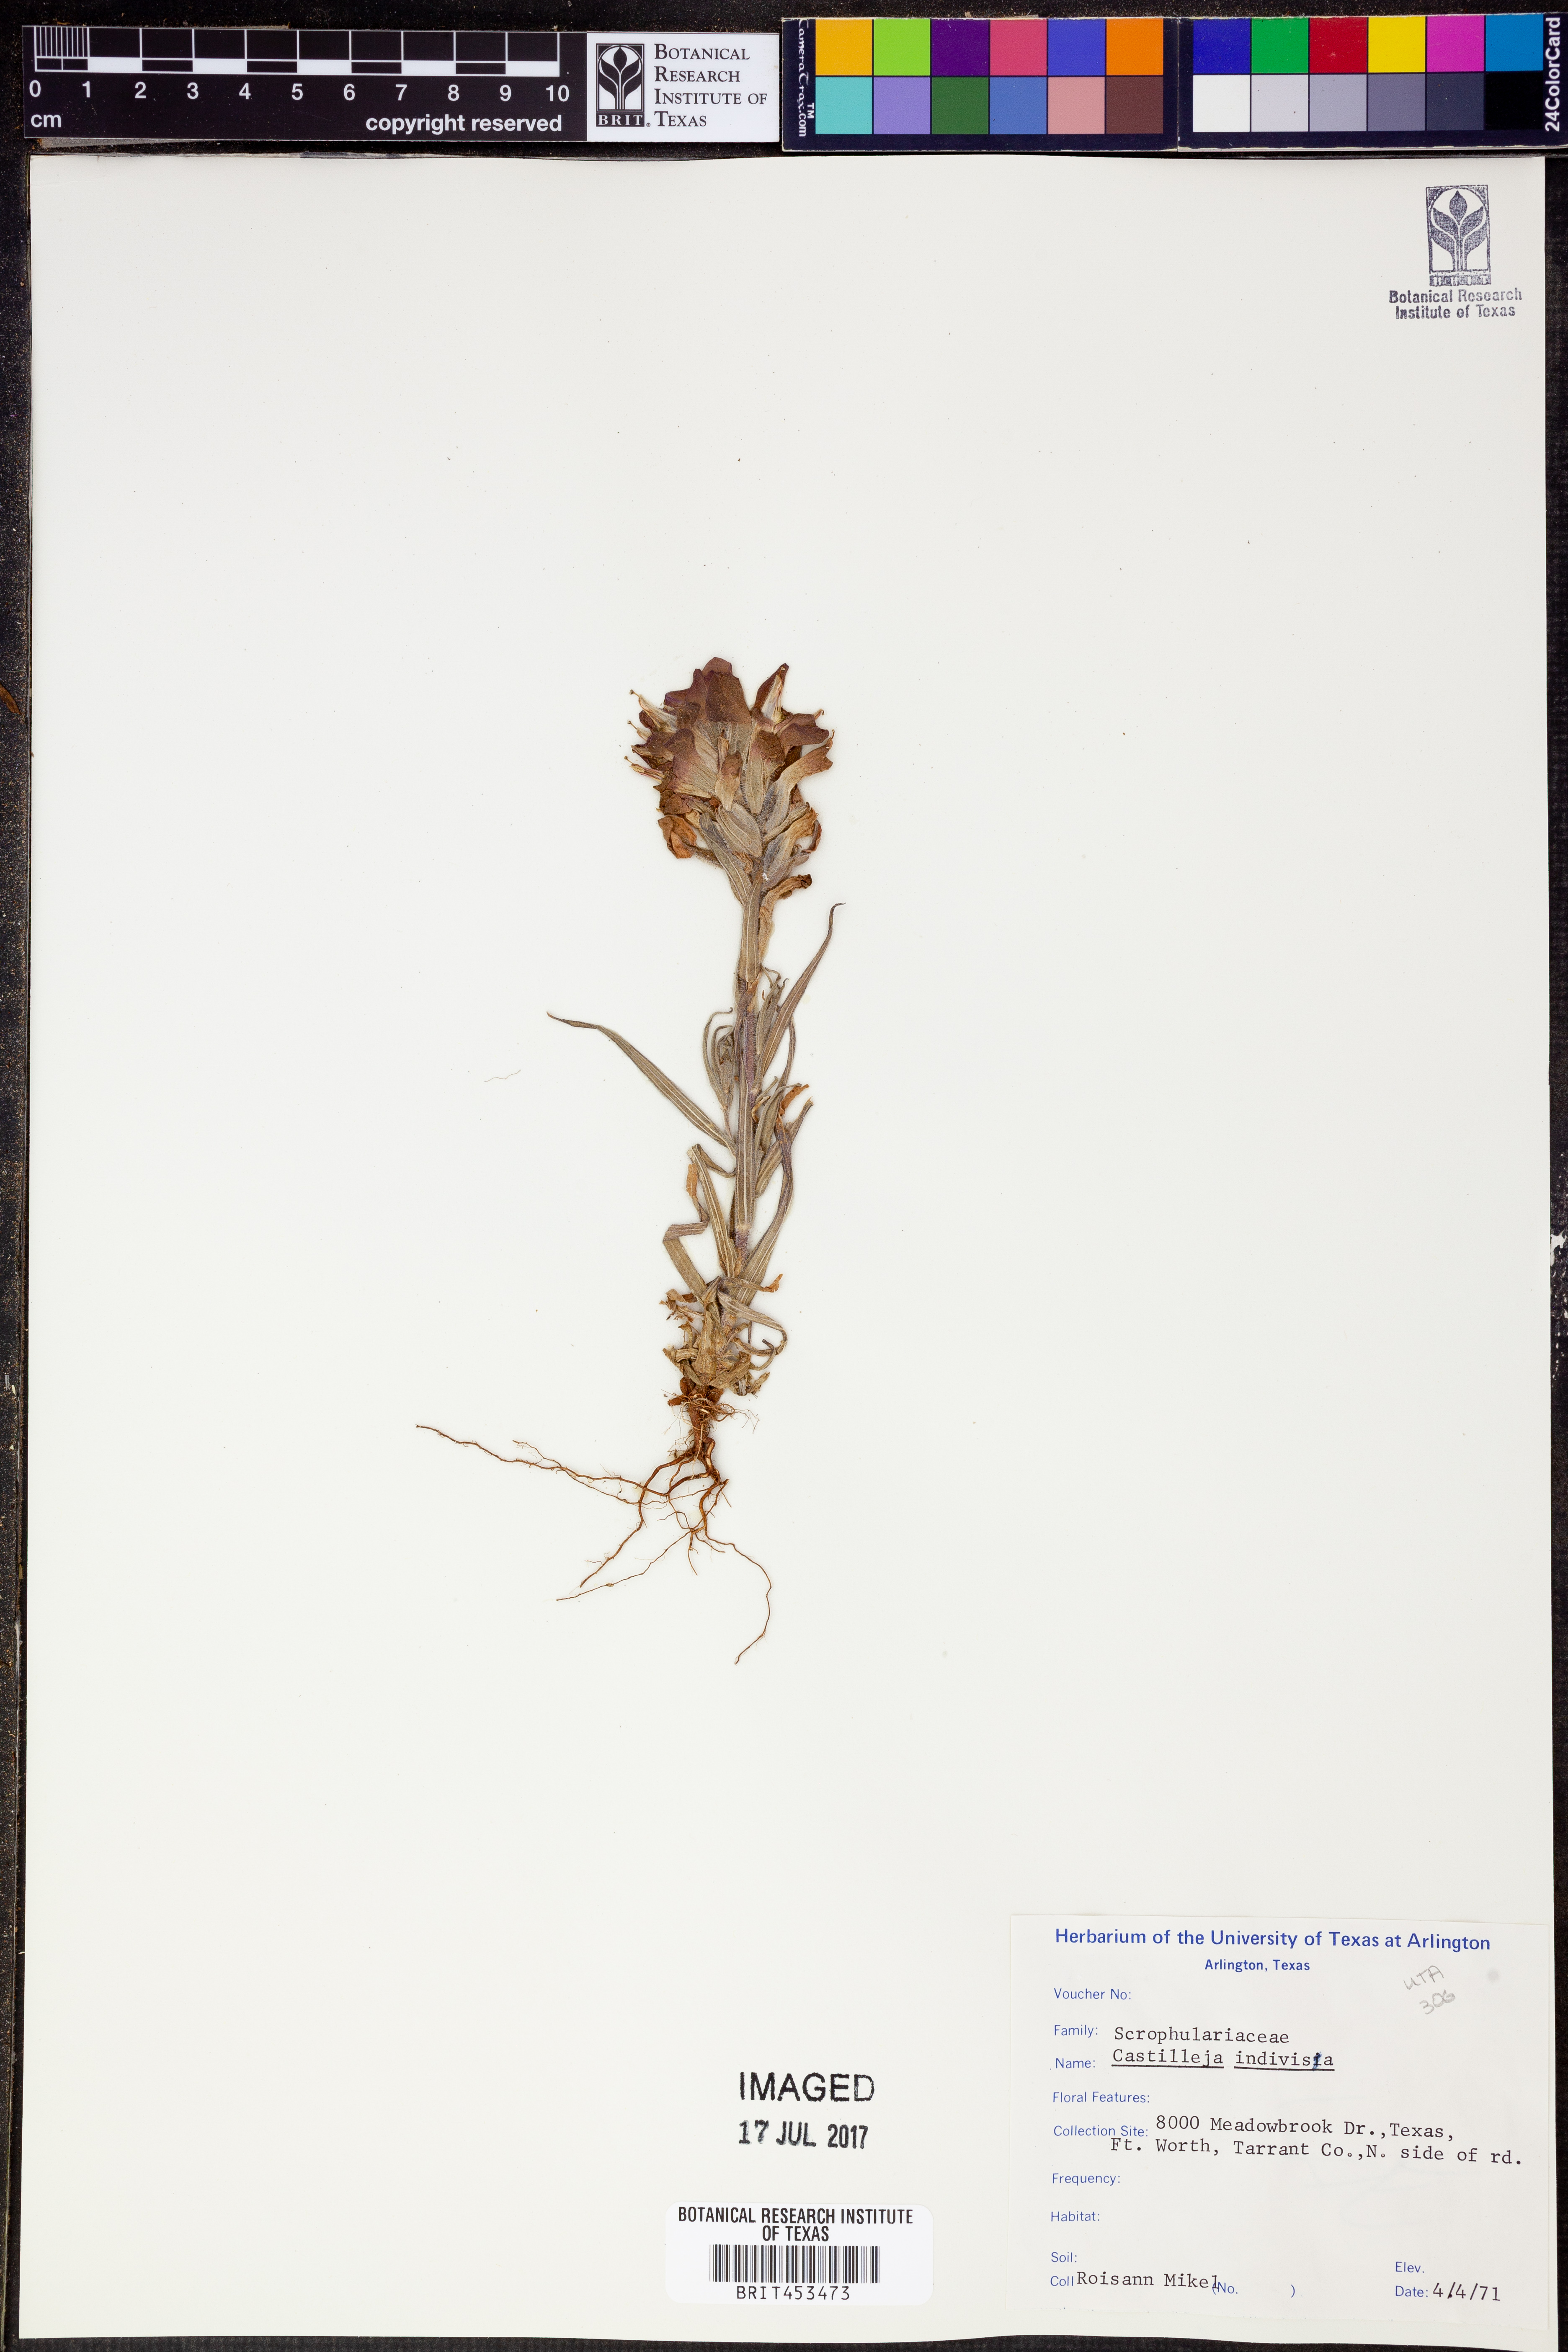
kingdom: Plantae
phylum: Tracheophyta
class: Magnoliopsida
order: Lamiales
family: Orobanchaceae
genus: Castilleja
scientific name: Castilleja indivisa
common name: Texas paintbrush
